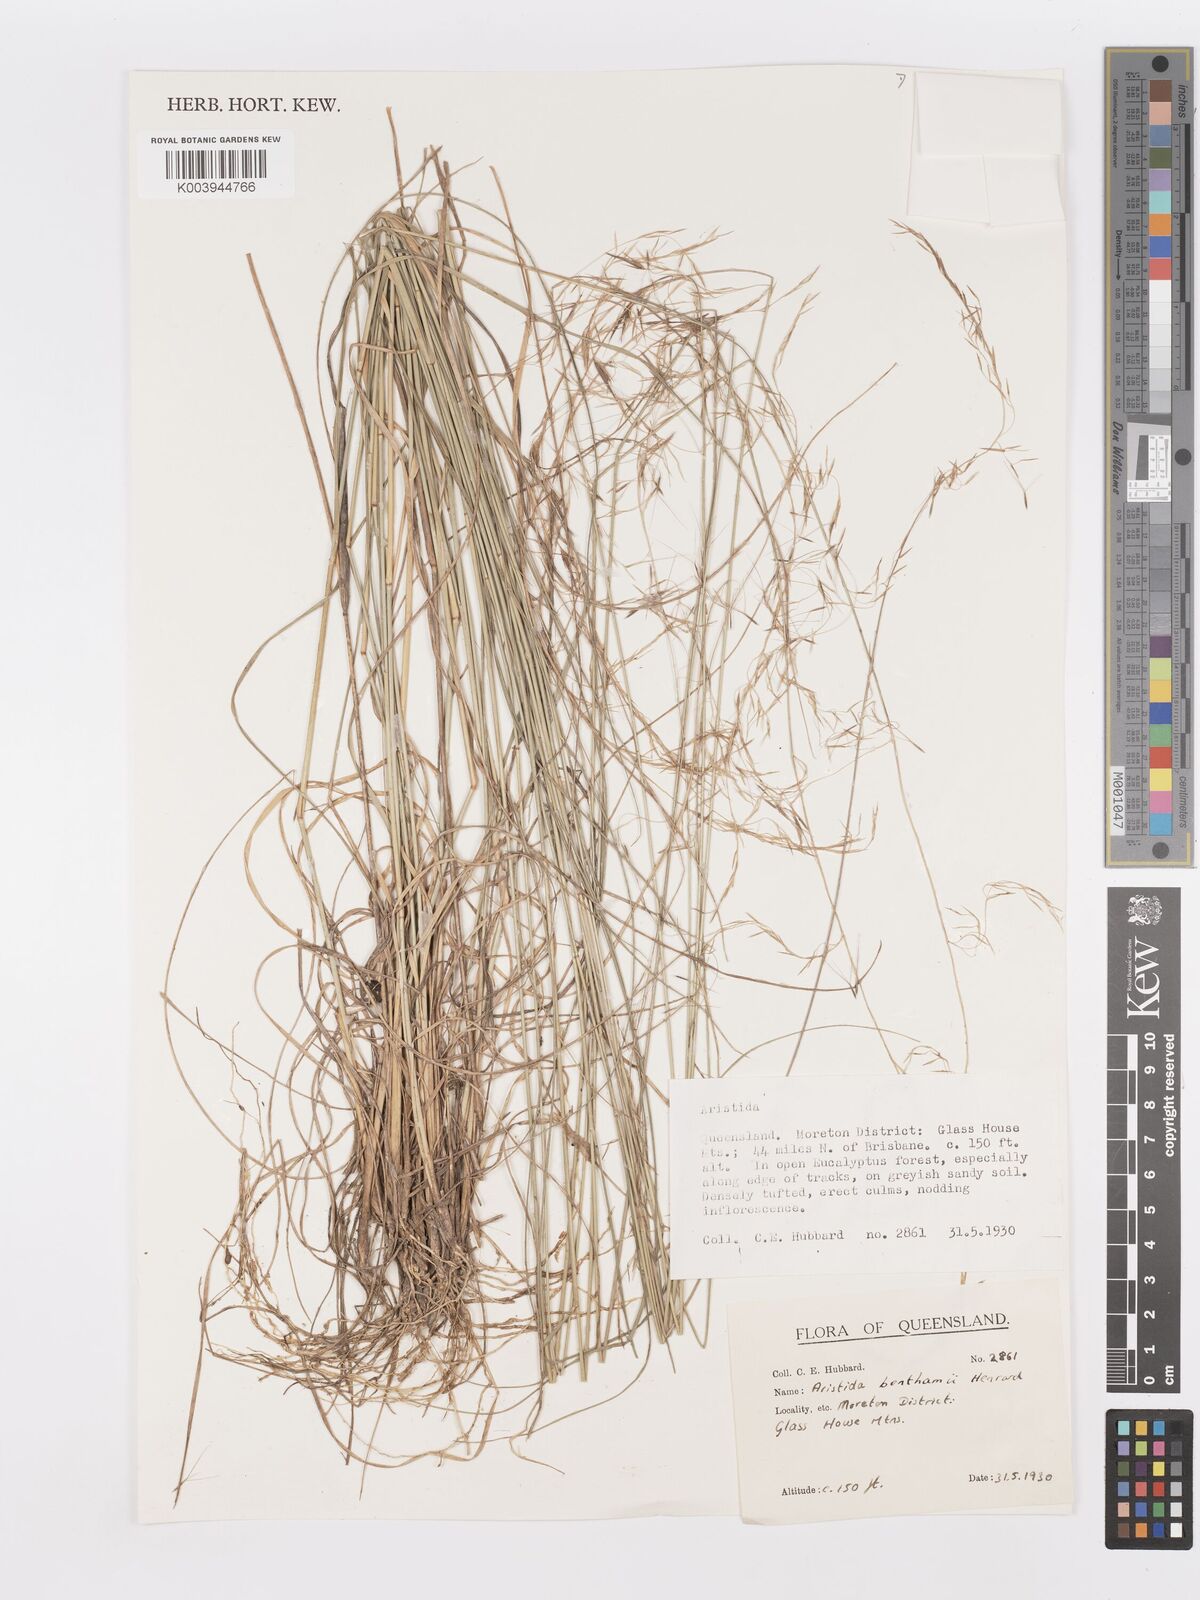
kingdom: Plantae
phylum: Tracheophyta
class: Liliopsida
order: Poales
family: Poaceae
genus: Aristida
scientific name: Aristida benthamii
